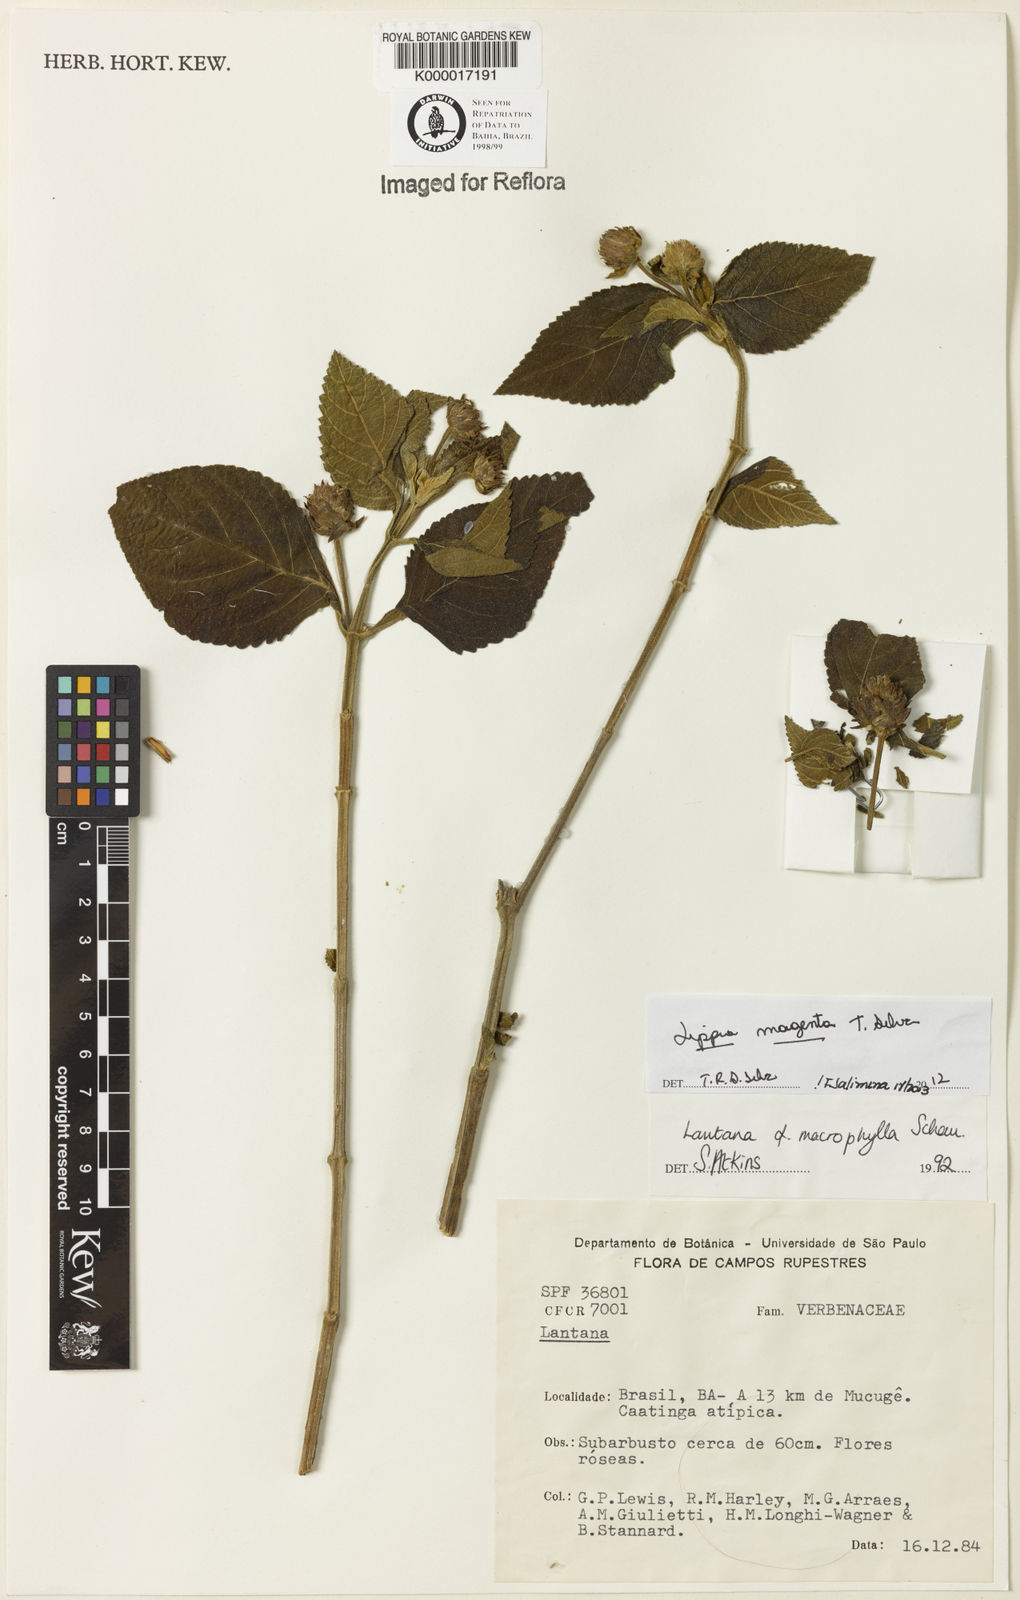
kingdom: Plantae
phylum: Tracheophyta
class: Magnoliopsida
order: Lamiales
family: Verbenaceae
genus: Lippia
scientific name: Lippia
